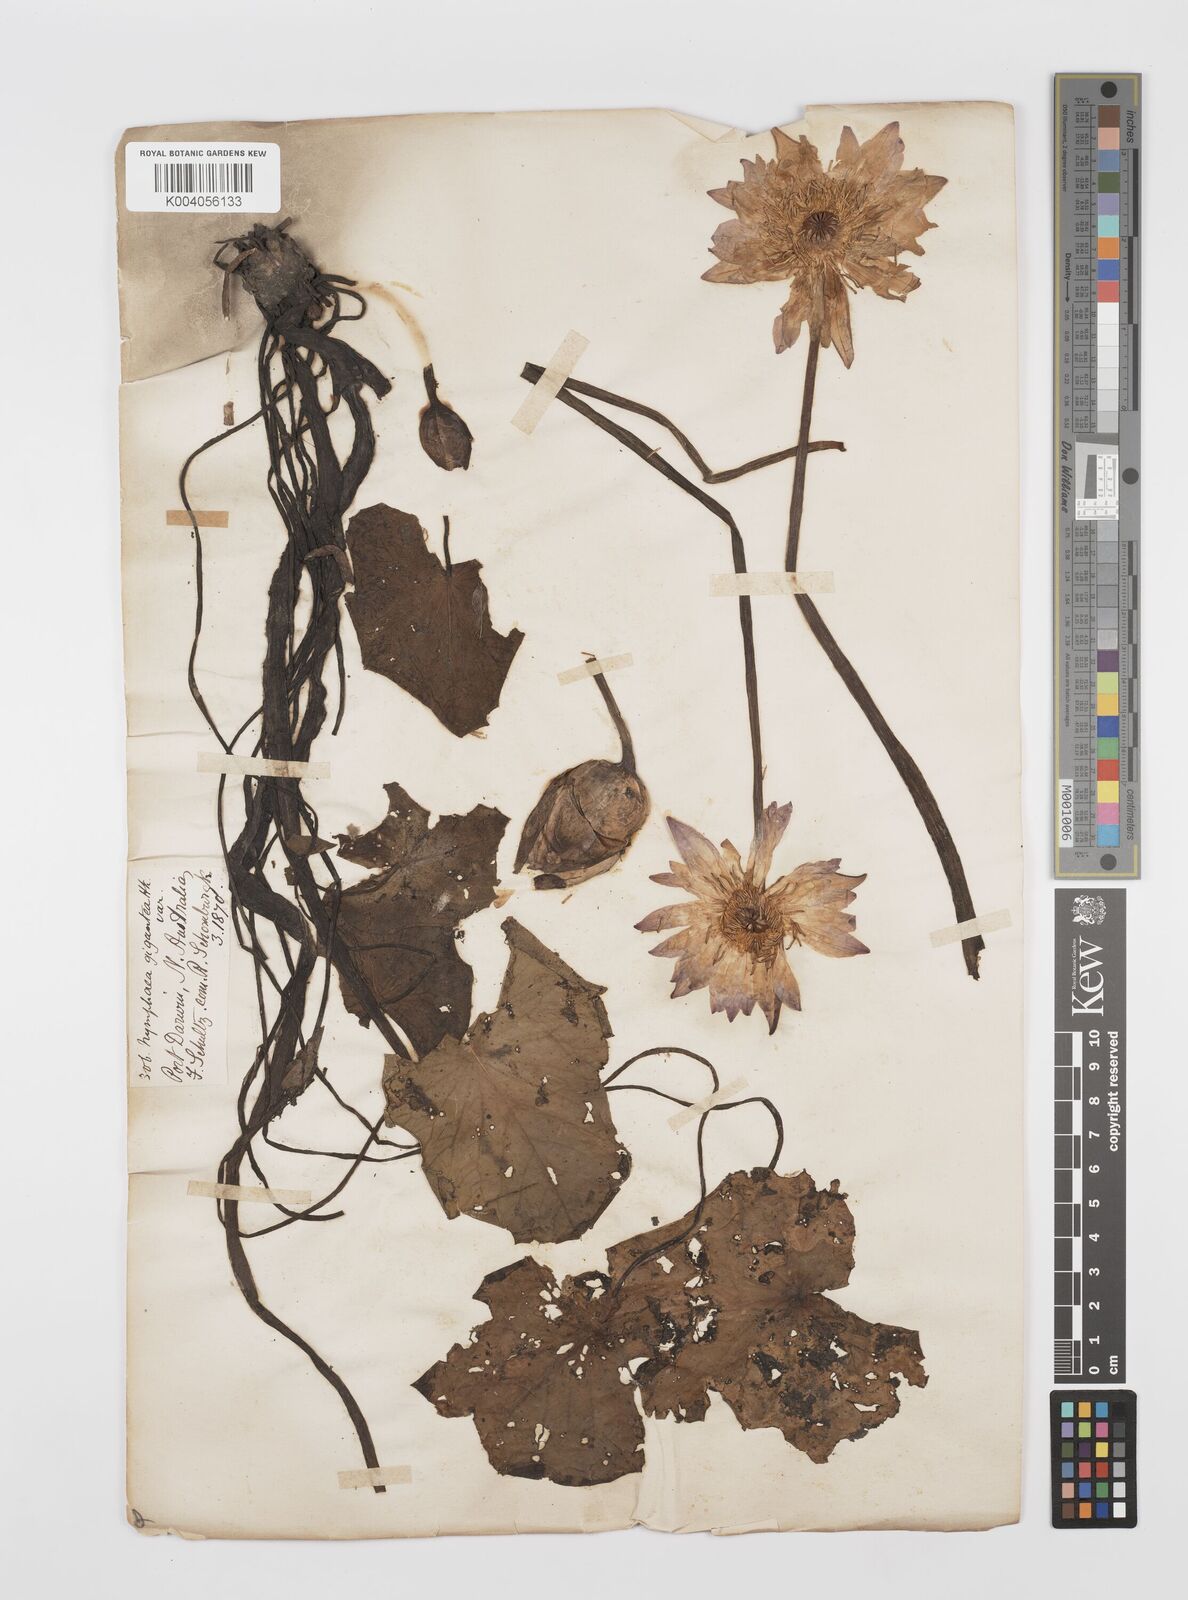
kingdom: Plantae
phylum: Tracheophyta
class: Magnoliopsida
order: Nymphaeales
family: Nymphaeaceae
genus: Nymphaea
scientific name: Nymphaea gigantea
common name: Giant water-lily
